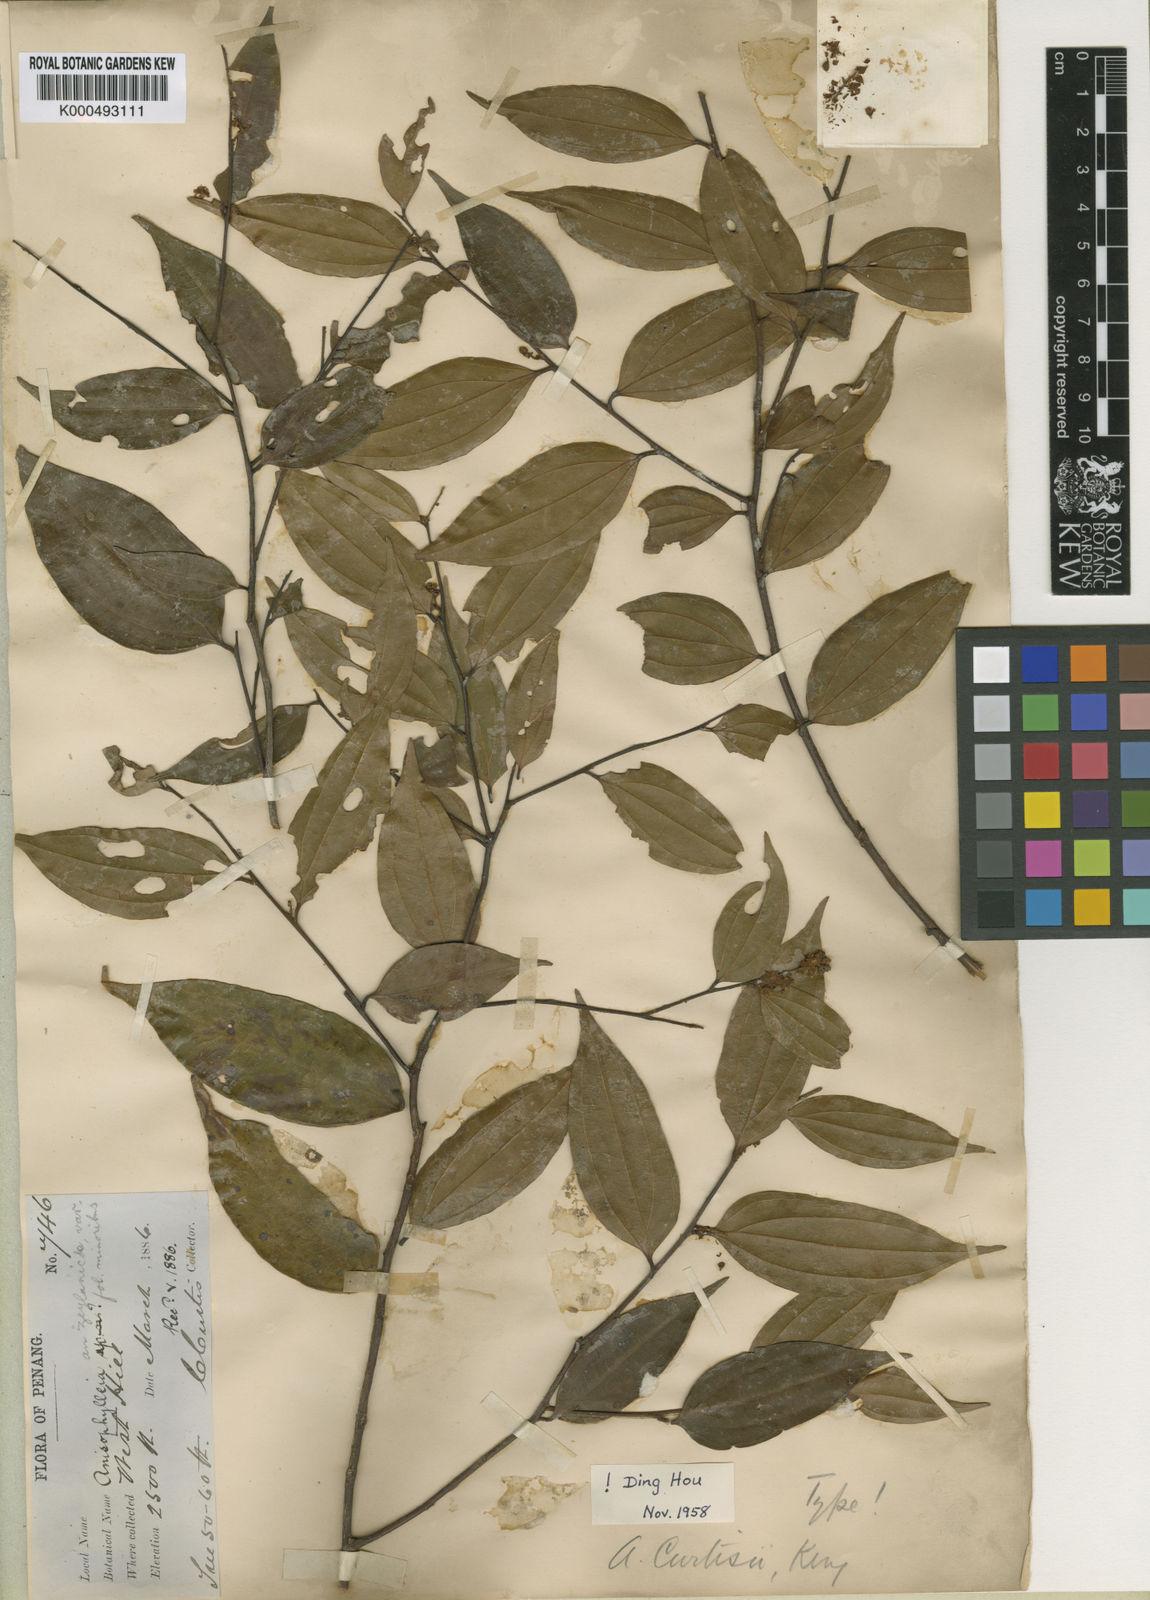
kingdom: Plantae
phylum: Tracheophyta
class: Magnoliopsida
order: Cucurbitales
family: Anisophylleaceae
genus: Anisophyllea
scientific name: Anisophyllea
